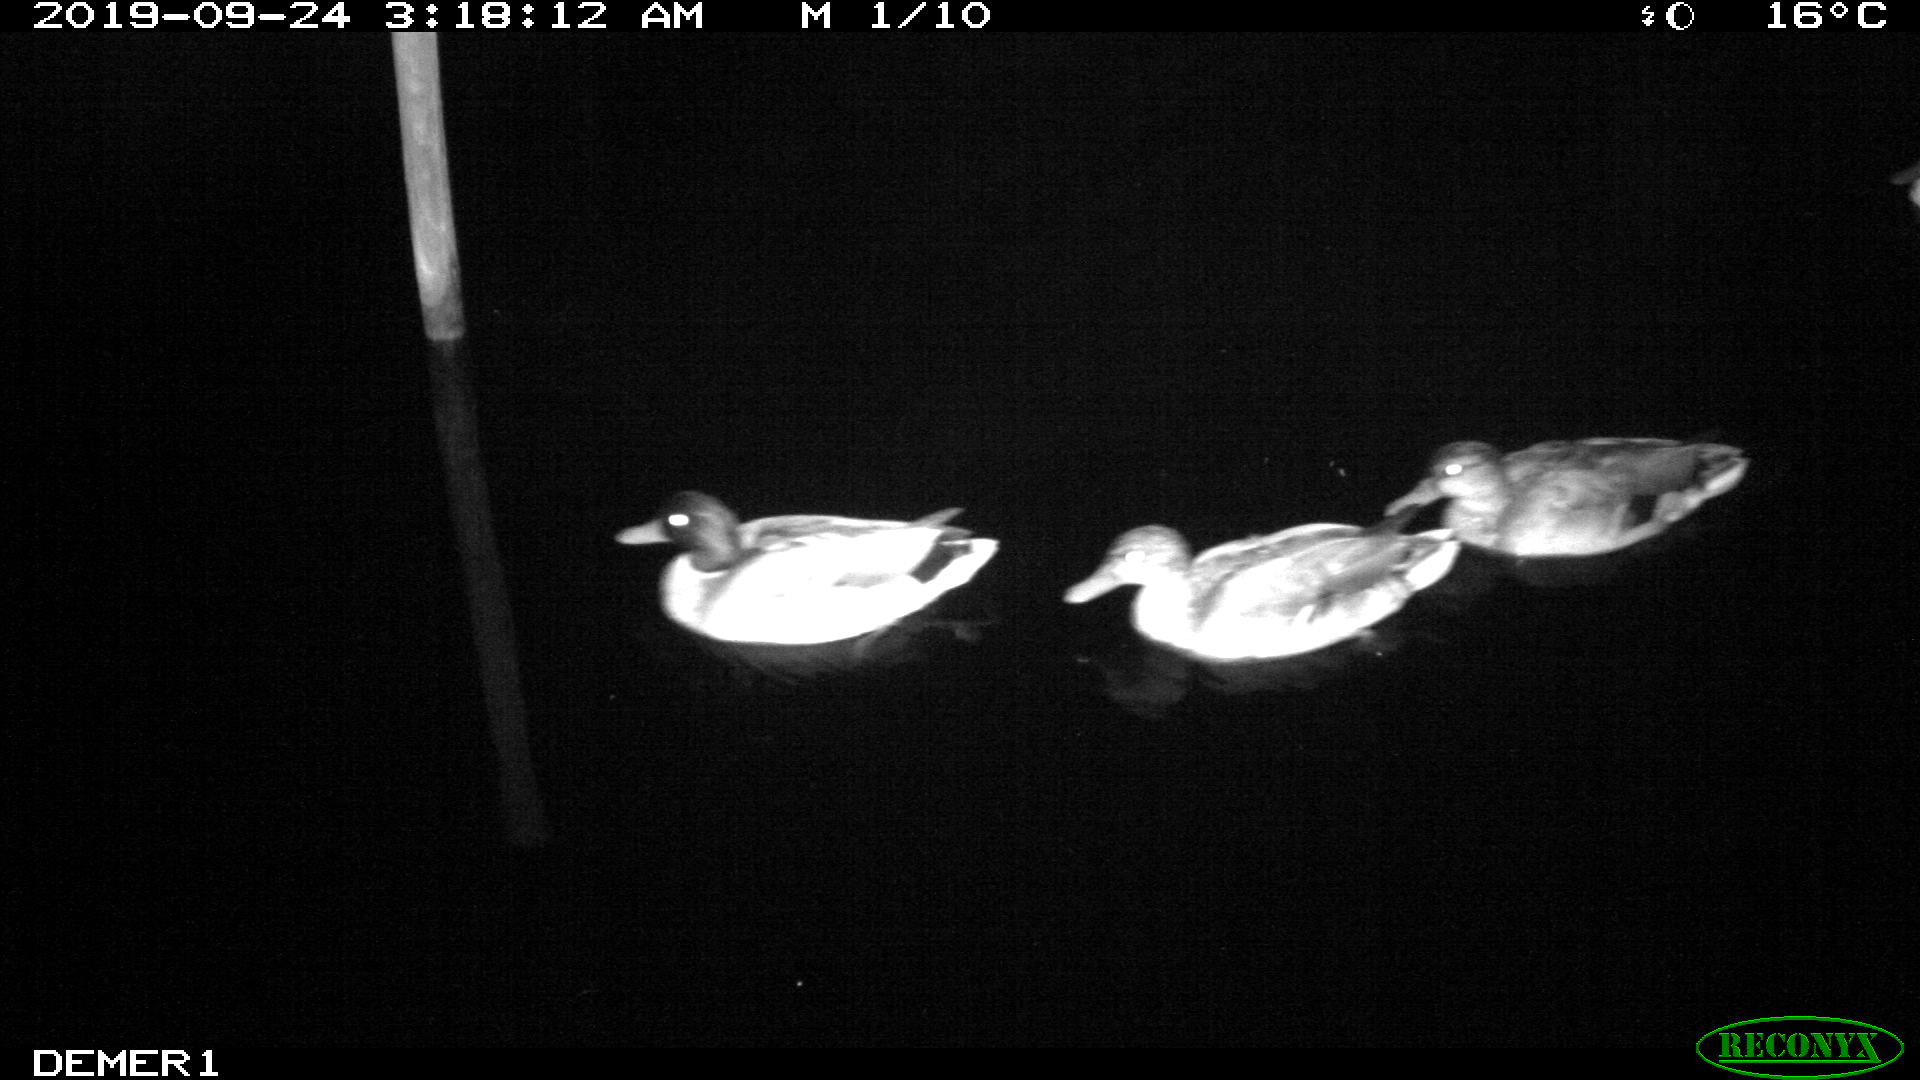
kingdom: Animalia
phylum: Chordata
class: Aves
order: Anseriformes
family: Anatidae
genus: Anas
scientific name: Anas platyrhynchos
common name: Mallard
